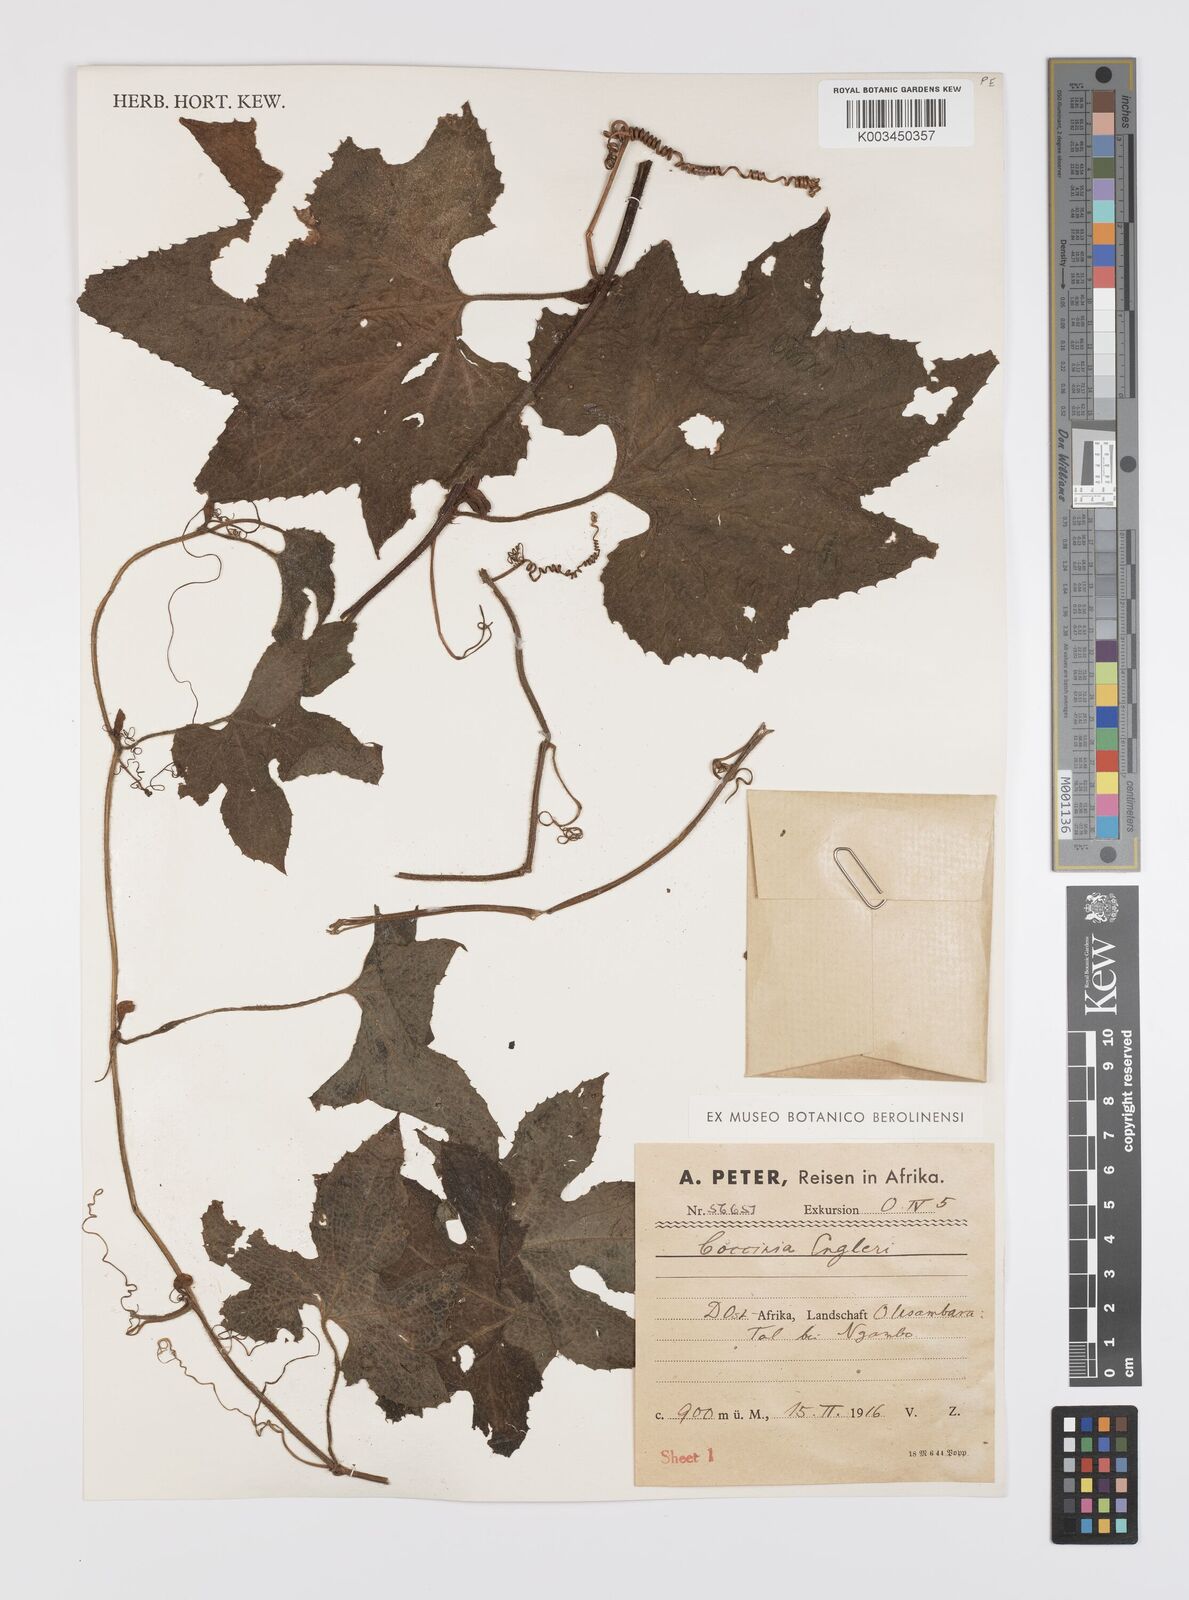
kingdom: Plantae
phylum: Tracheophyta
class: Magnoliopsida
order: Cucurbitales
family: Cucurbitaceae
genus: Peponium
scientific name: Peponium vogelii
